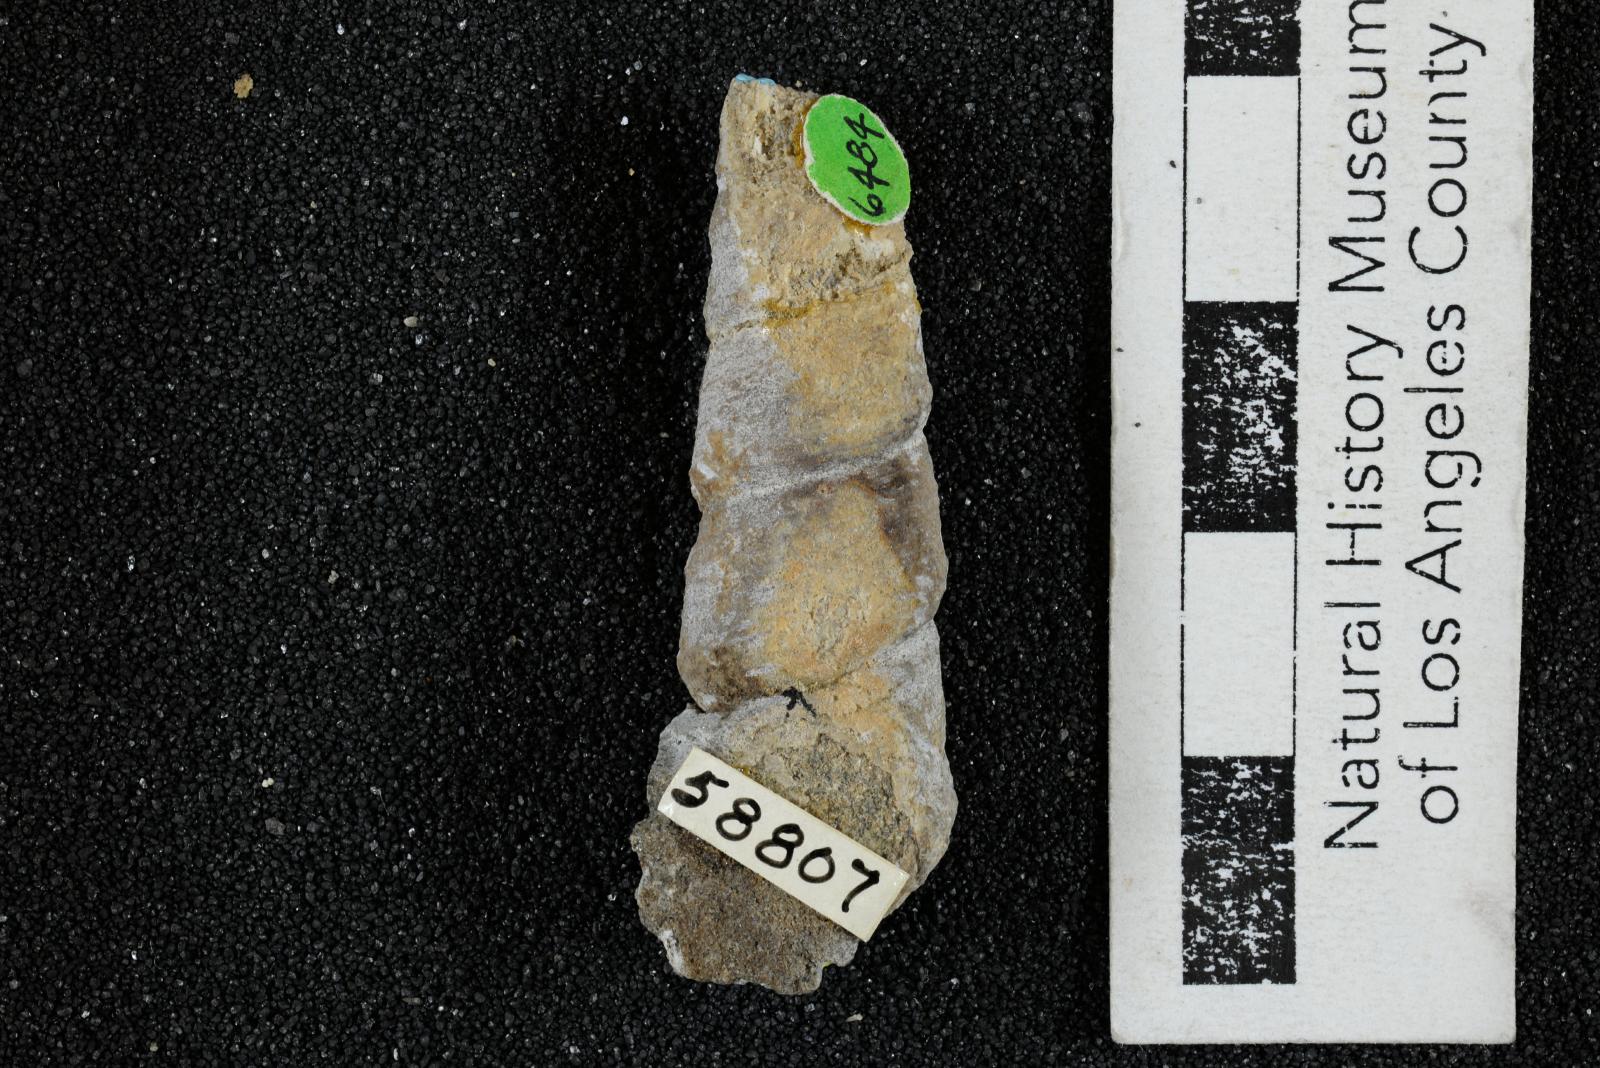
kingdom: Animalia
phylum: Mollusca
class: Gastropoda
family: Turritellidae
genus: Turritella
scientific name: Turritella chaneyi
